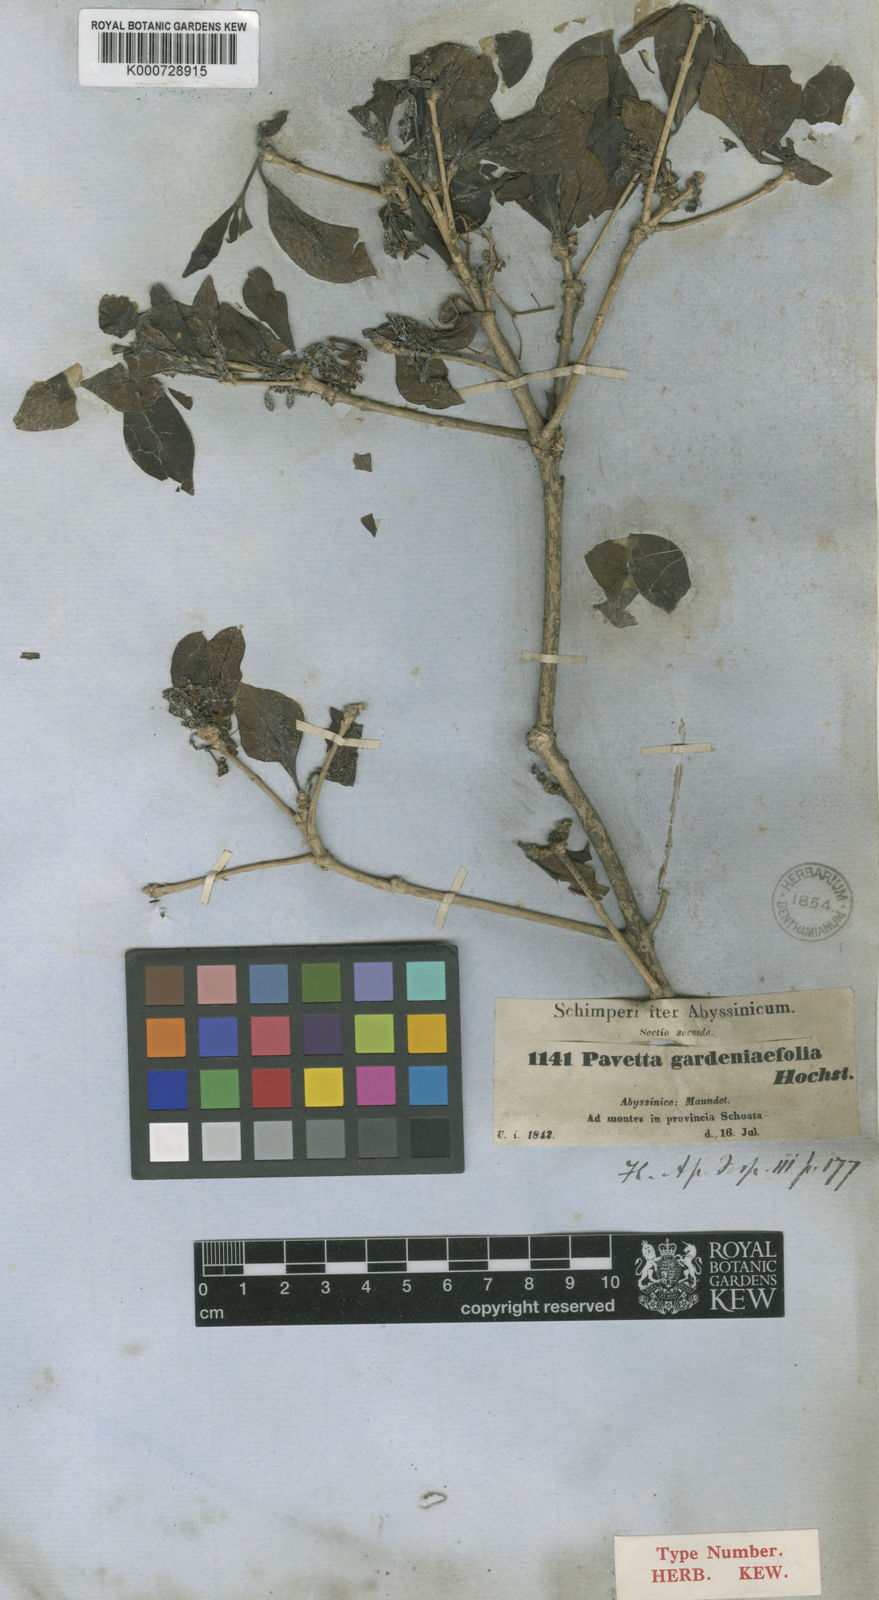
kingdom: Plantae
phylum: Tracheophyta
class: Magnoliopsida
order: Gentianales
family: Rubiaceae
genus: Pavetta
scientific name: Pavetta gardeniifolia
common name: Common brides-bush
